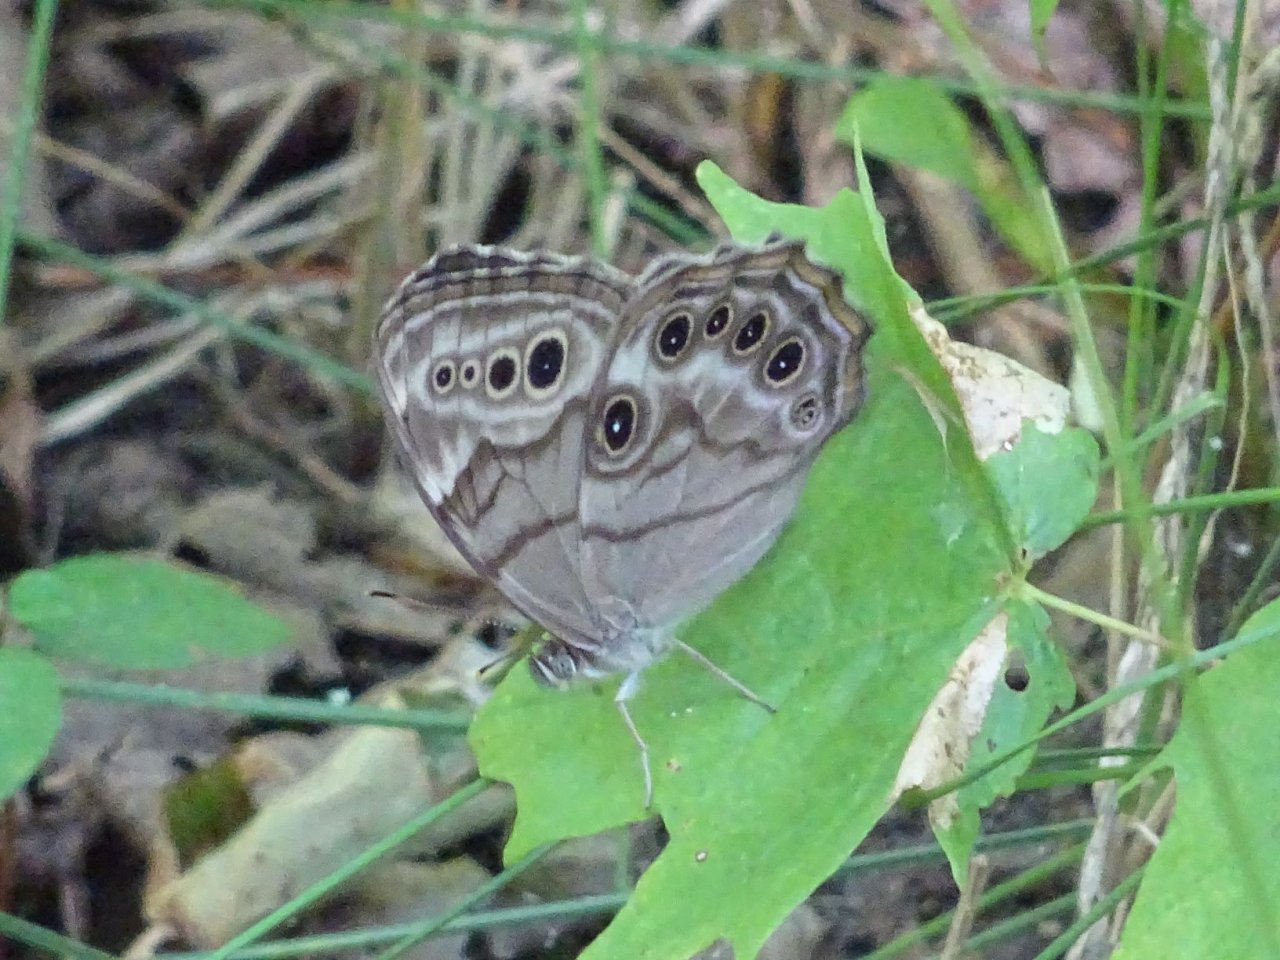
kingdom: Animalia
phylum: Arthropoda
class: Insecta
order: Lepidoptera
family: Nymphalidae
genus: Lethe
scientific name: Lethe anthedon
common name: Northern Pearly-Eye
